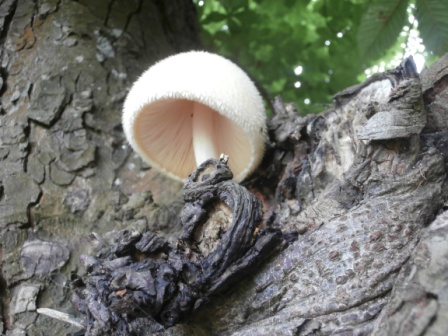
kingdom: Fungi
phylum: Basidiomycota
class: Agaricomycetes
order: Agaricales
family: Pluteaceae
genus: Volvariella
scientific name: Volvariella bombycina
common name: silkehåret posesvamp
